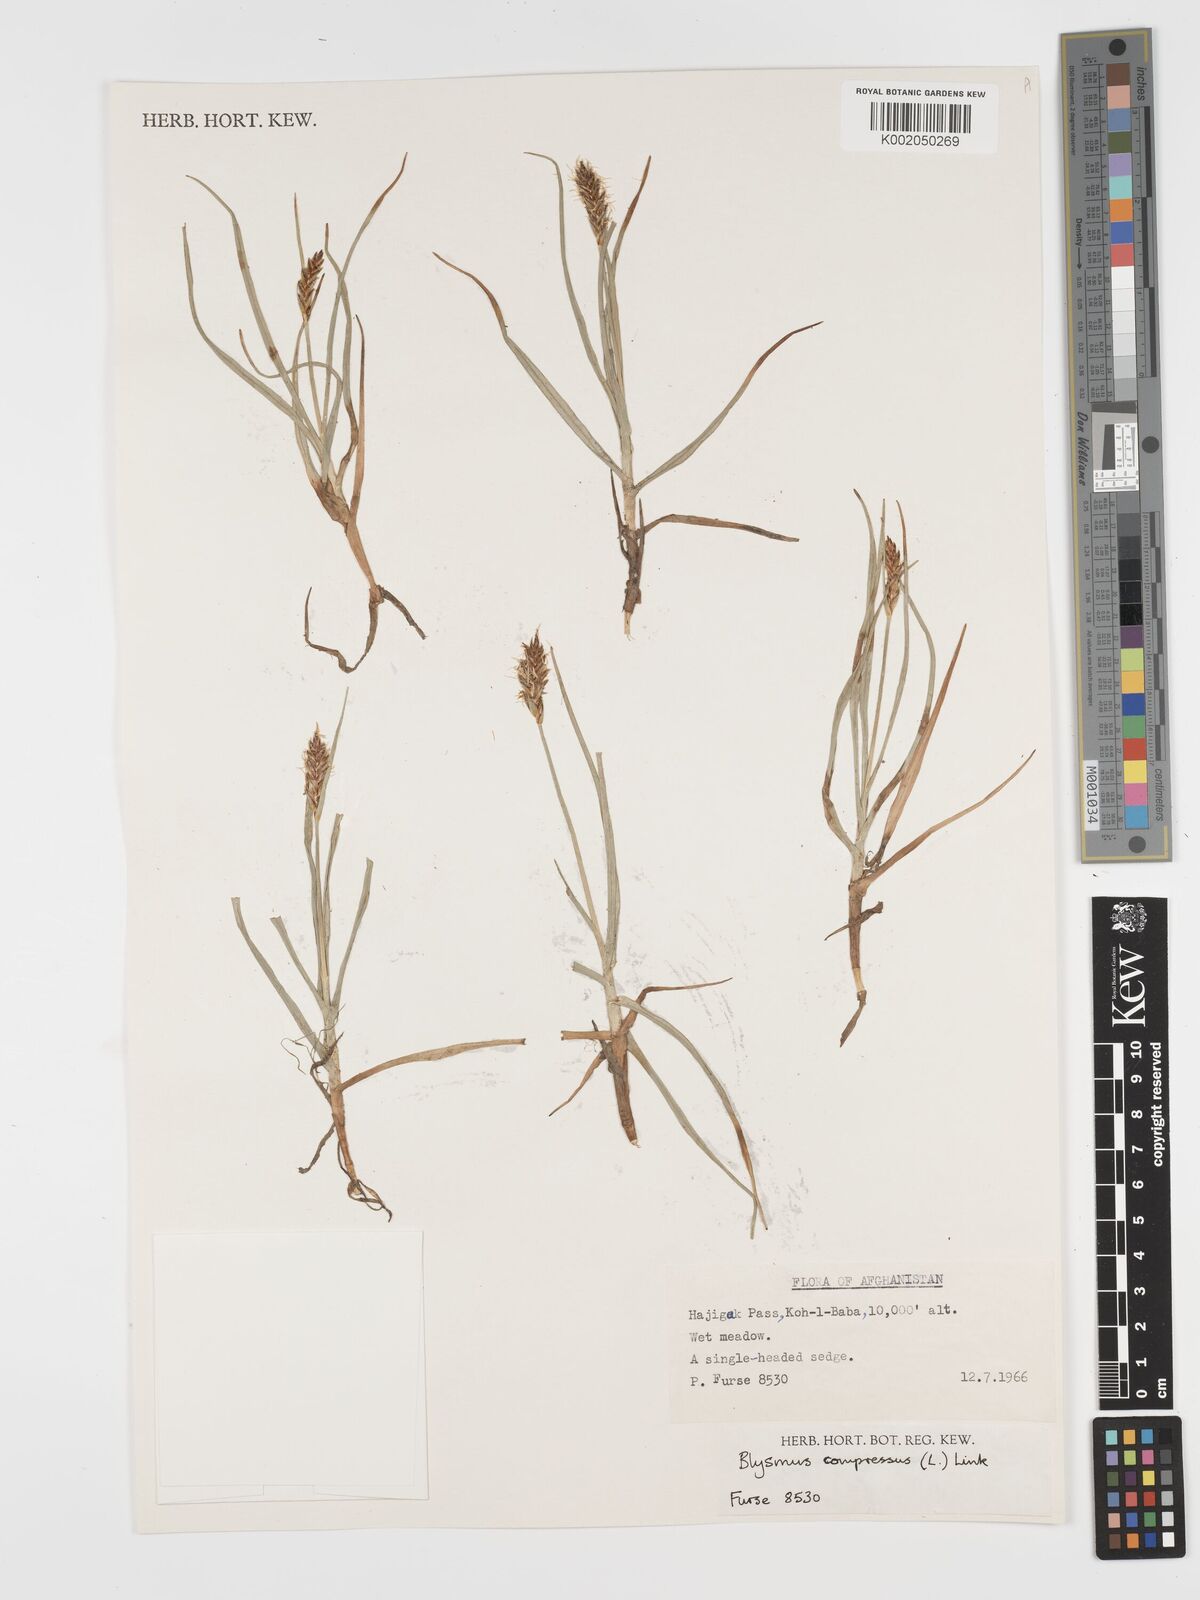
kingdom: Plantae
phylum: Tracheophyta
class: Liliopsida
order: Poales
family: Cyperaceae
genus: Blysmus
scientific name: Blysmus compressus
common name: Flat-sedge
